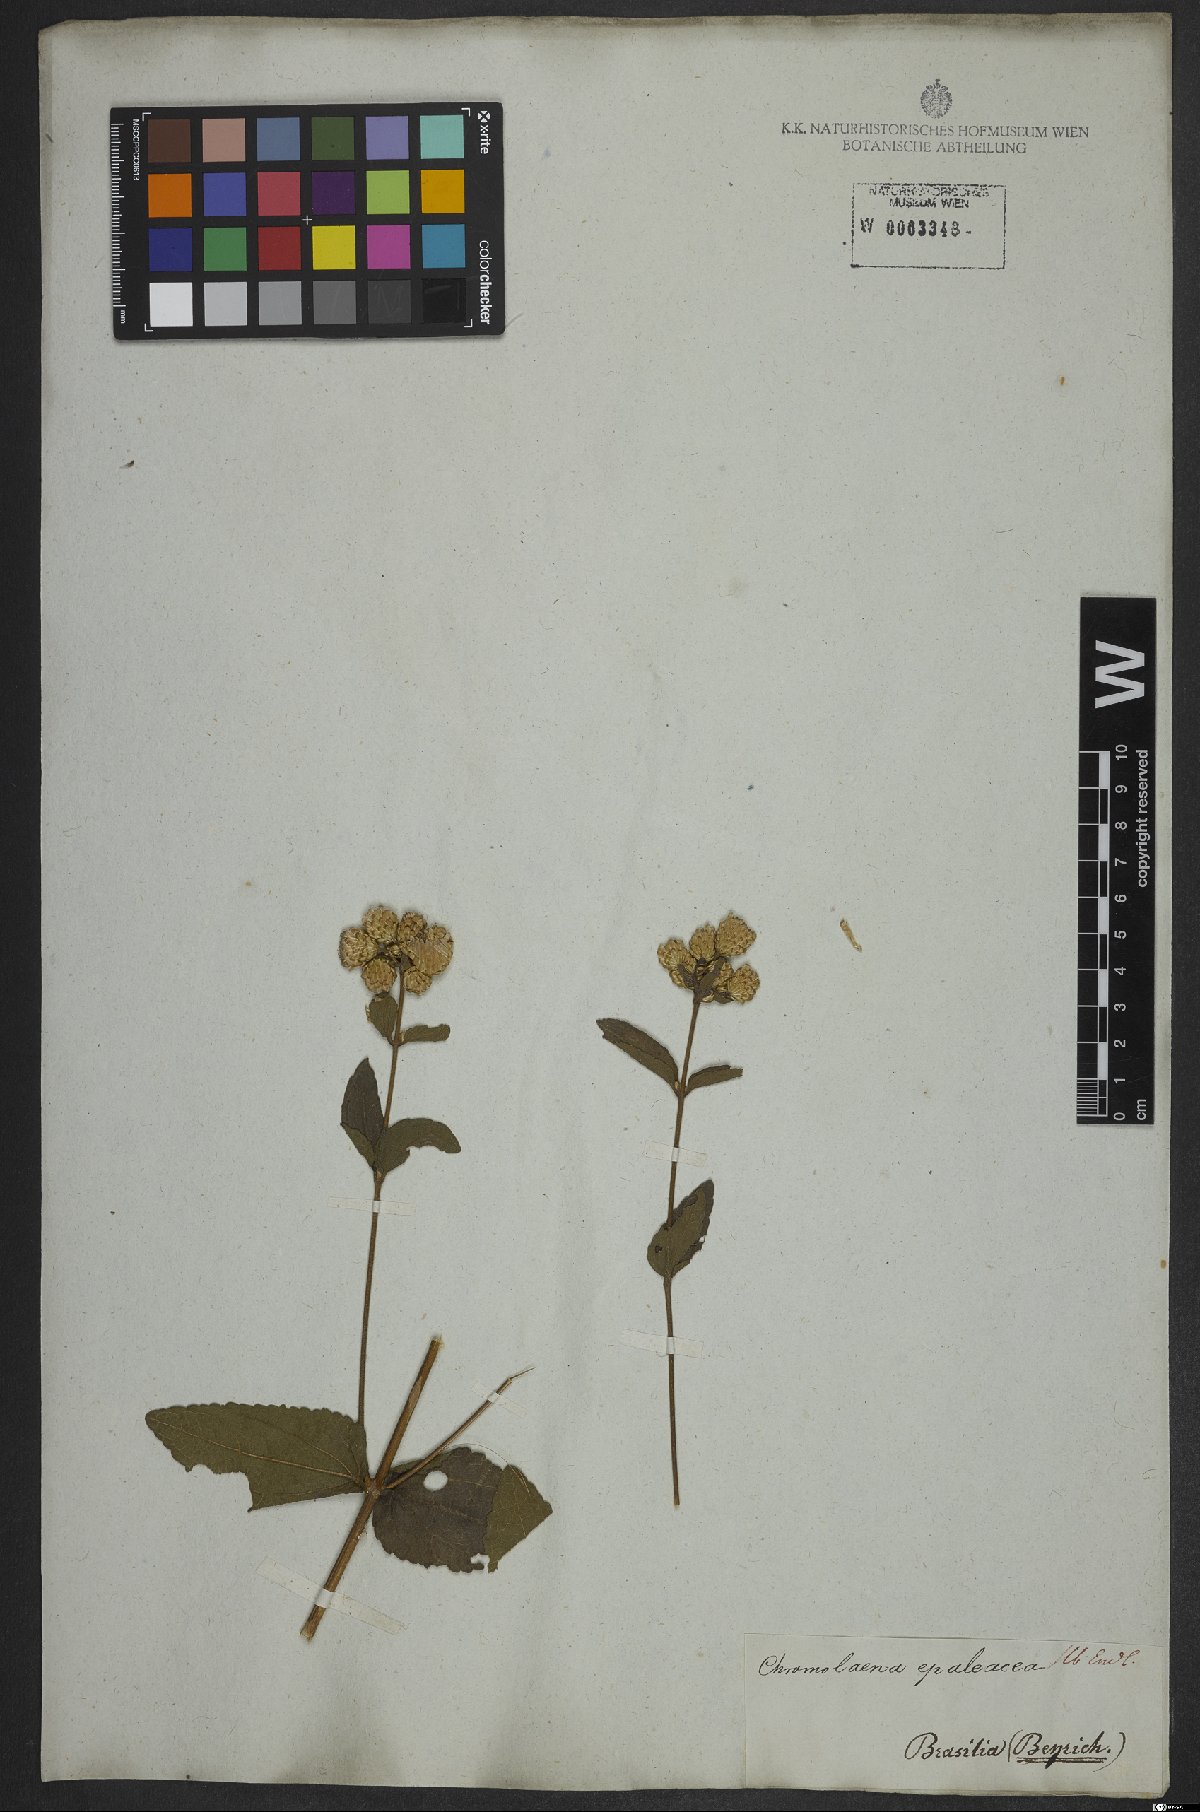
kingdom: Plantae
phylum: Tracheophyta
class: Magnoliopsida
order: Asterales
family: Asteraceae
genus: Chromolaena
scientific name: Chromolaena epaleacea
